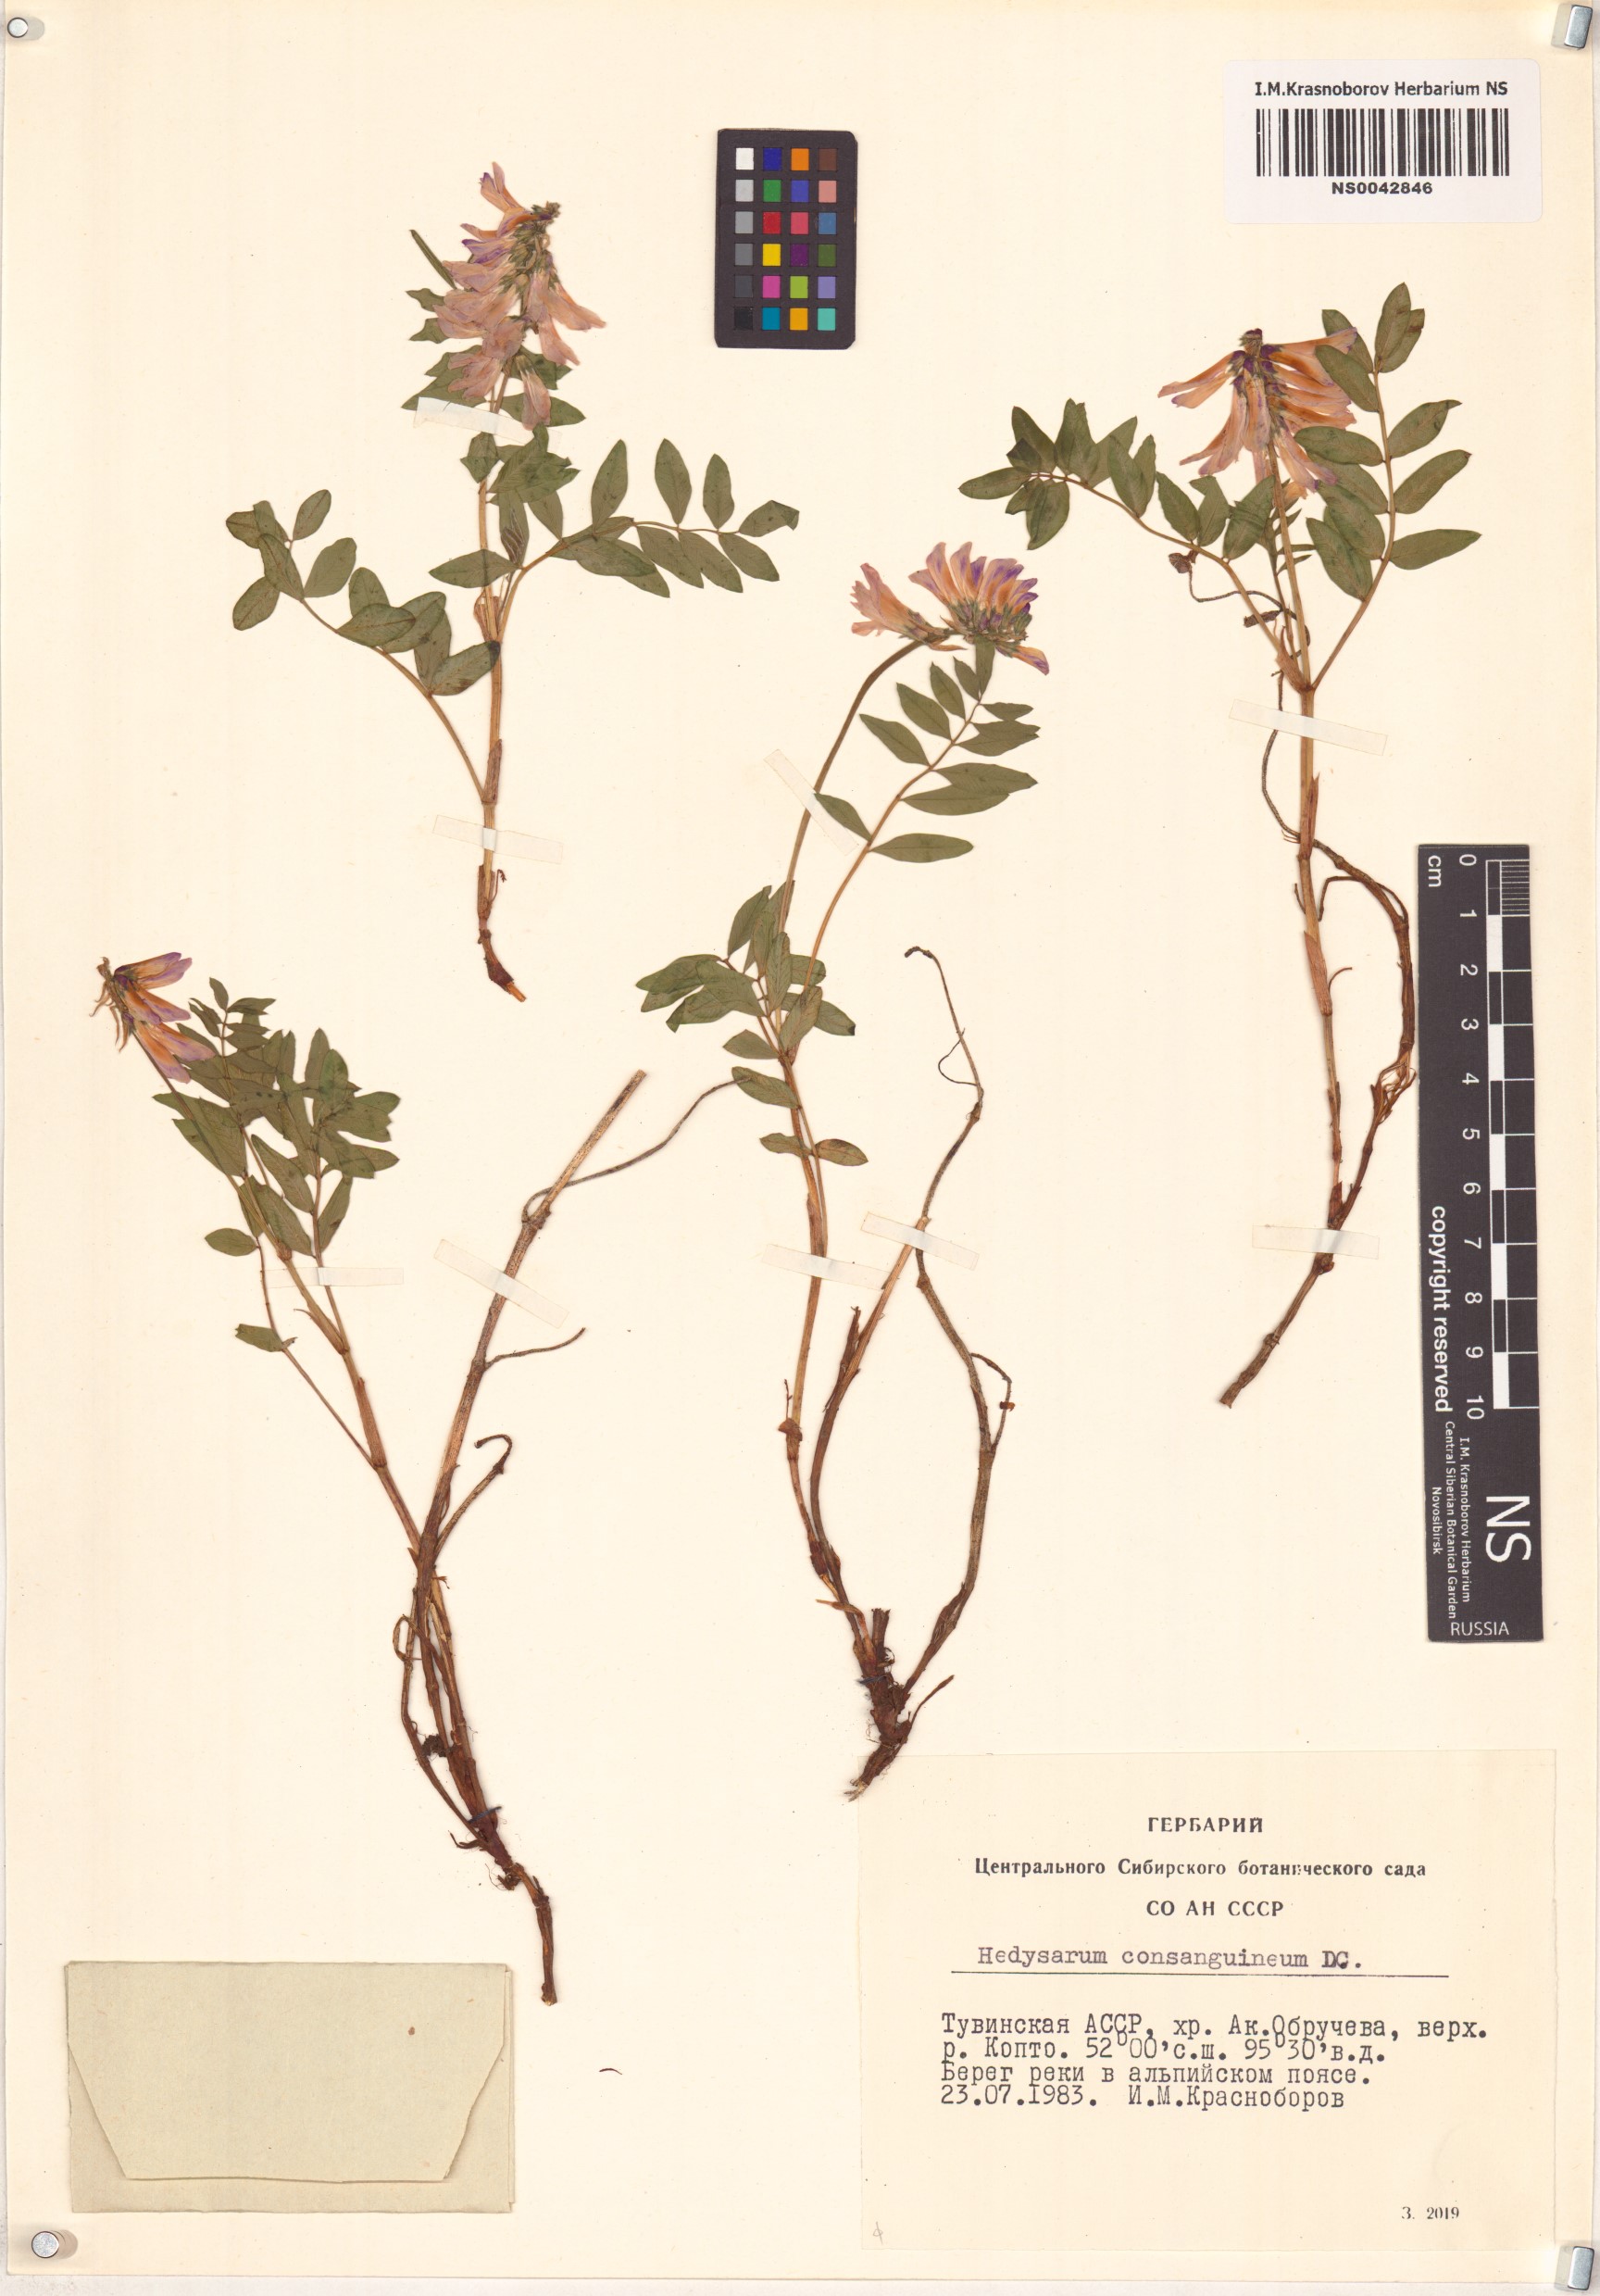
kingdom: Plantae
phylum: Tracheophyta
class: Magnoliopsida
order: Fabales
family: Fabaceae
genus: Hedysarum
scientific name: Hedysarum consanguineum
